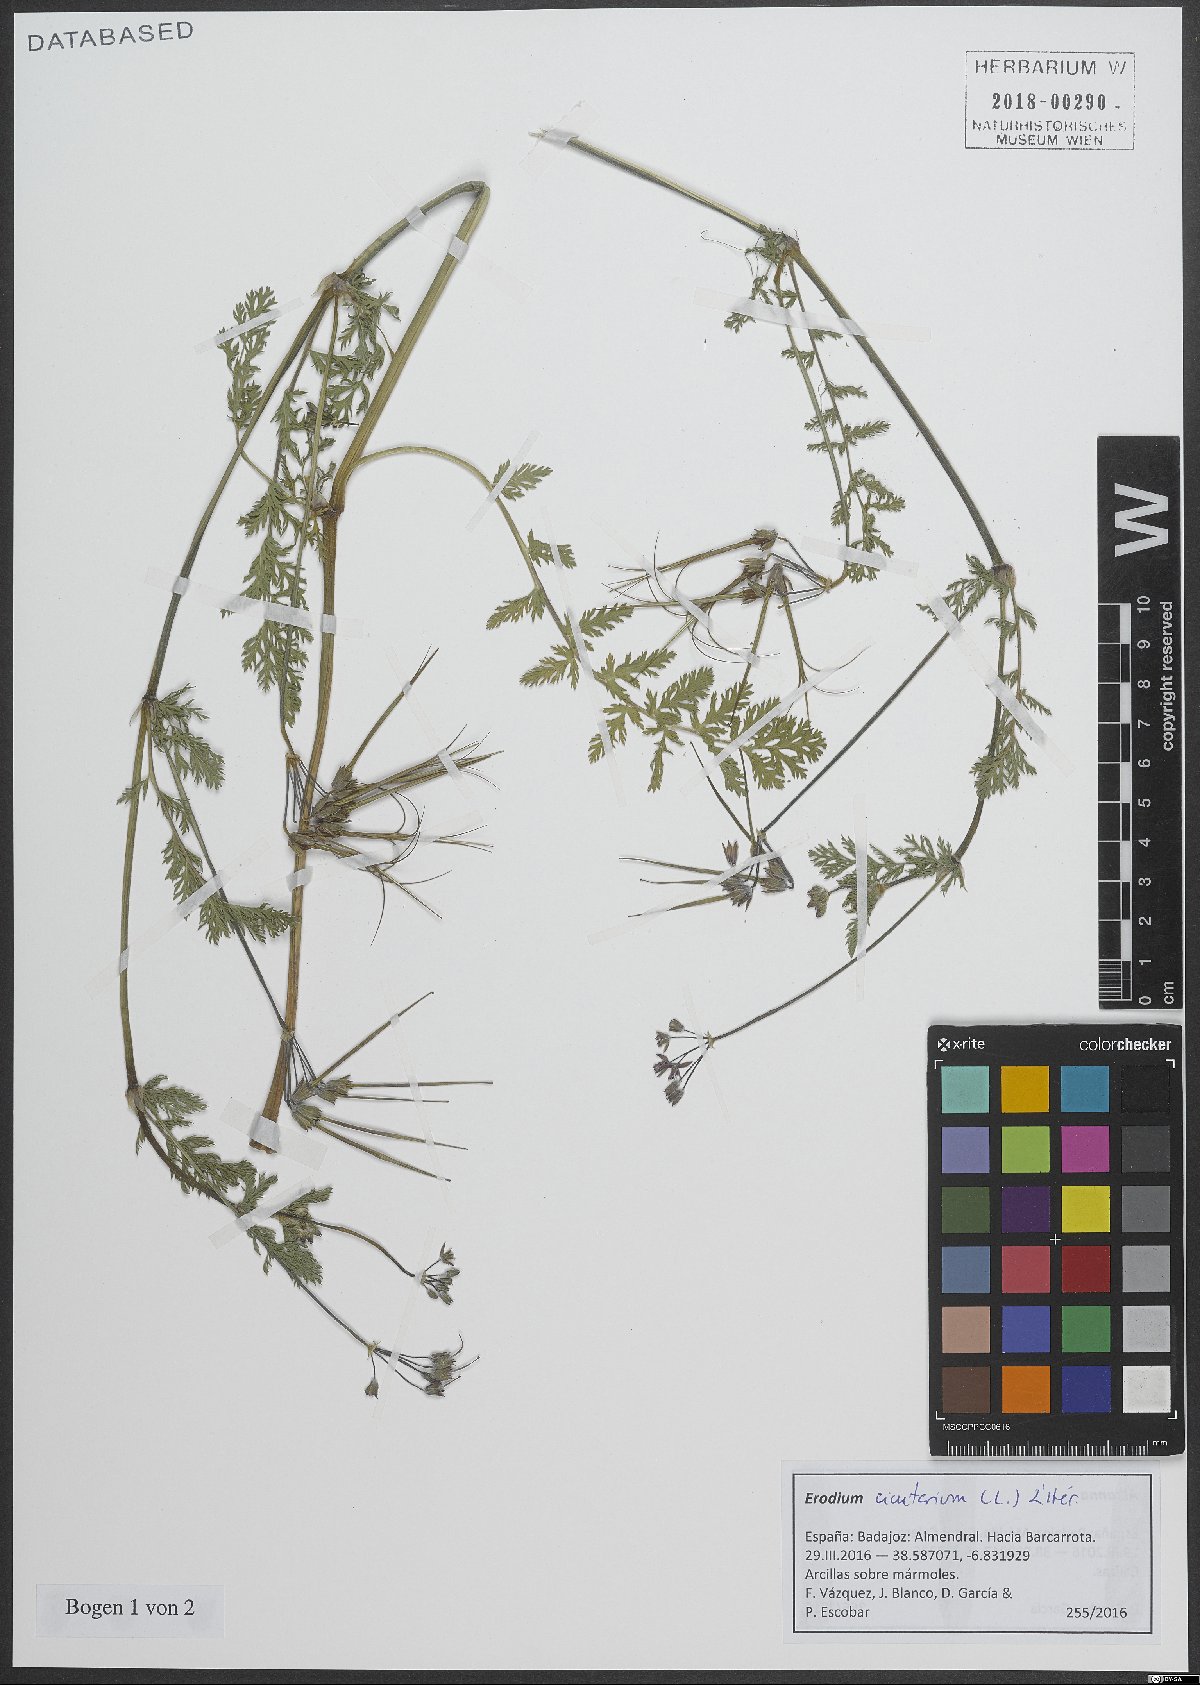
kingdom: Plantae
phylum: Tracheophyta
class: Magnoliopsida
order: Geraniales
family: Geraniaceae
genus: Erodium
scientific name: Erodium cicutarium
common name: Common stork's-bill
